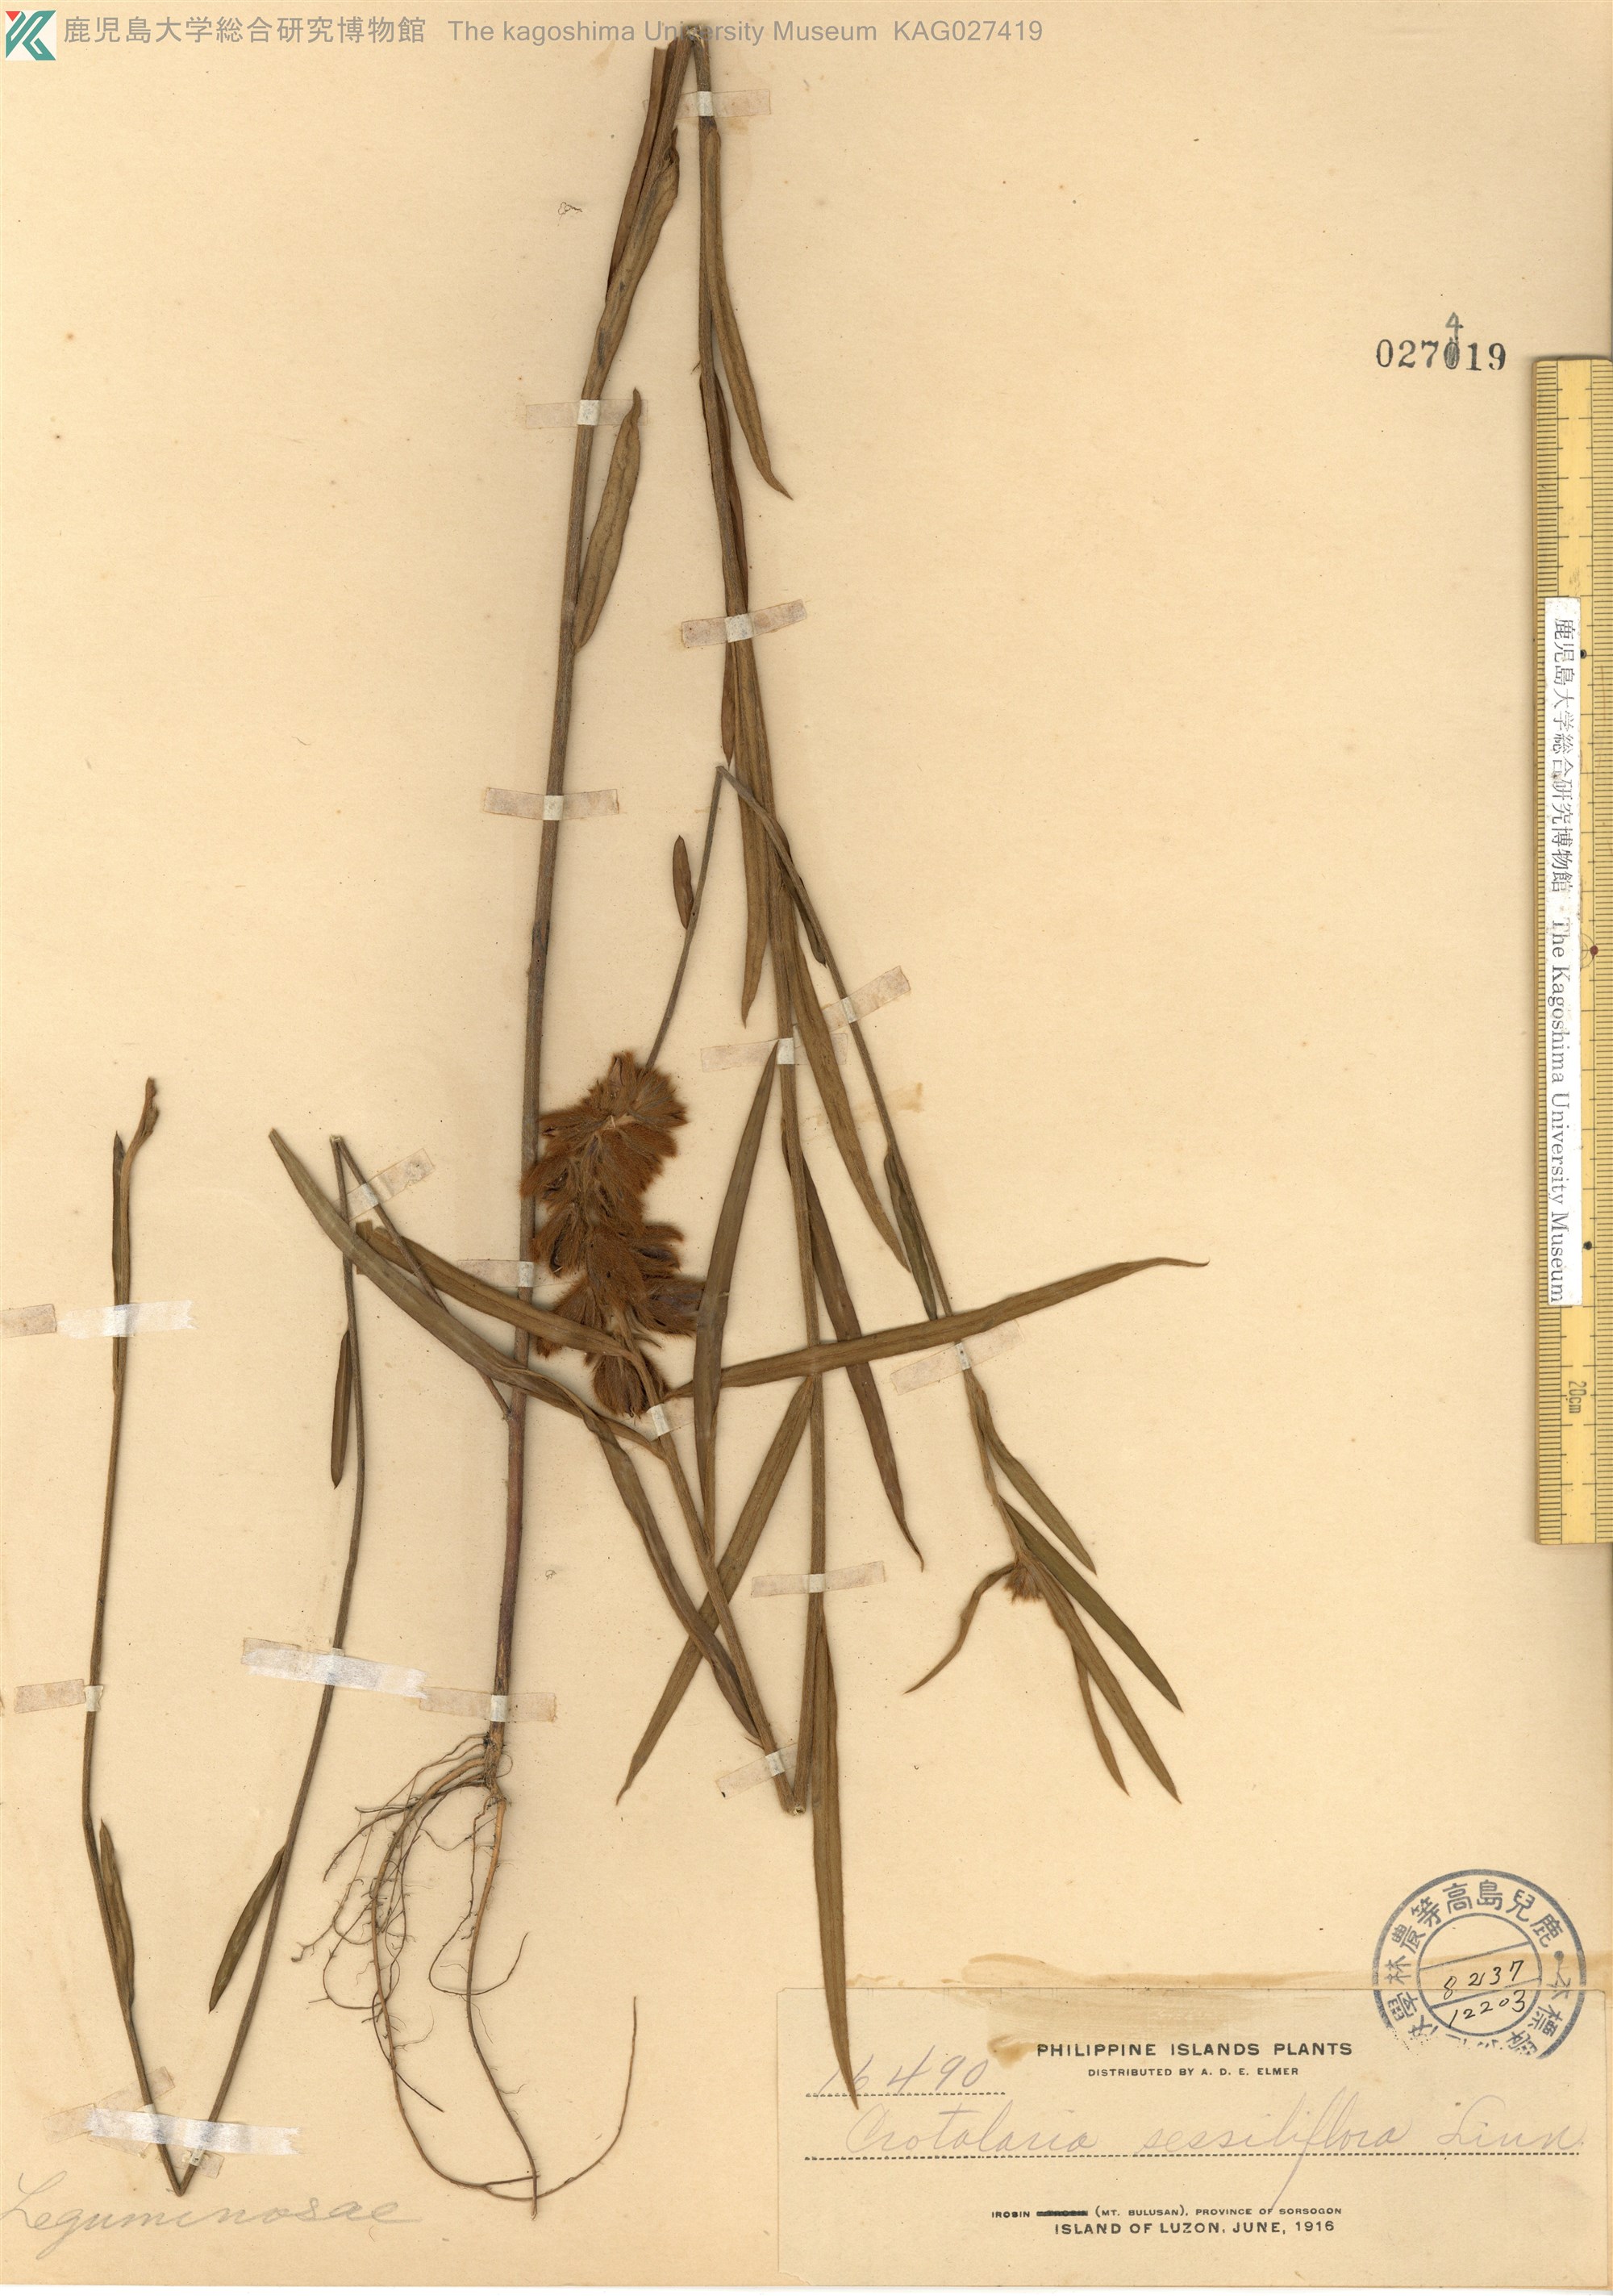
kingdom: Plantae
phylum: Tracheophyta
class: Magnoliopsida
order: Fabales
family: Fabaceae
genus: Crotalaria
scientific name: Crotalaria sessiliflora
